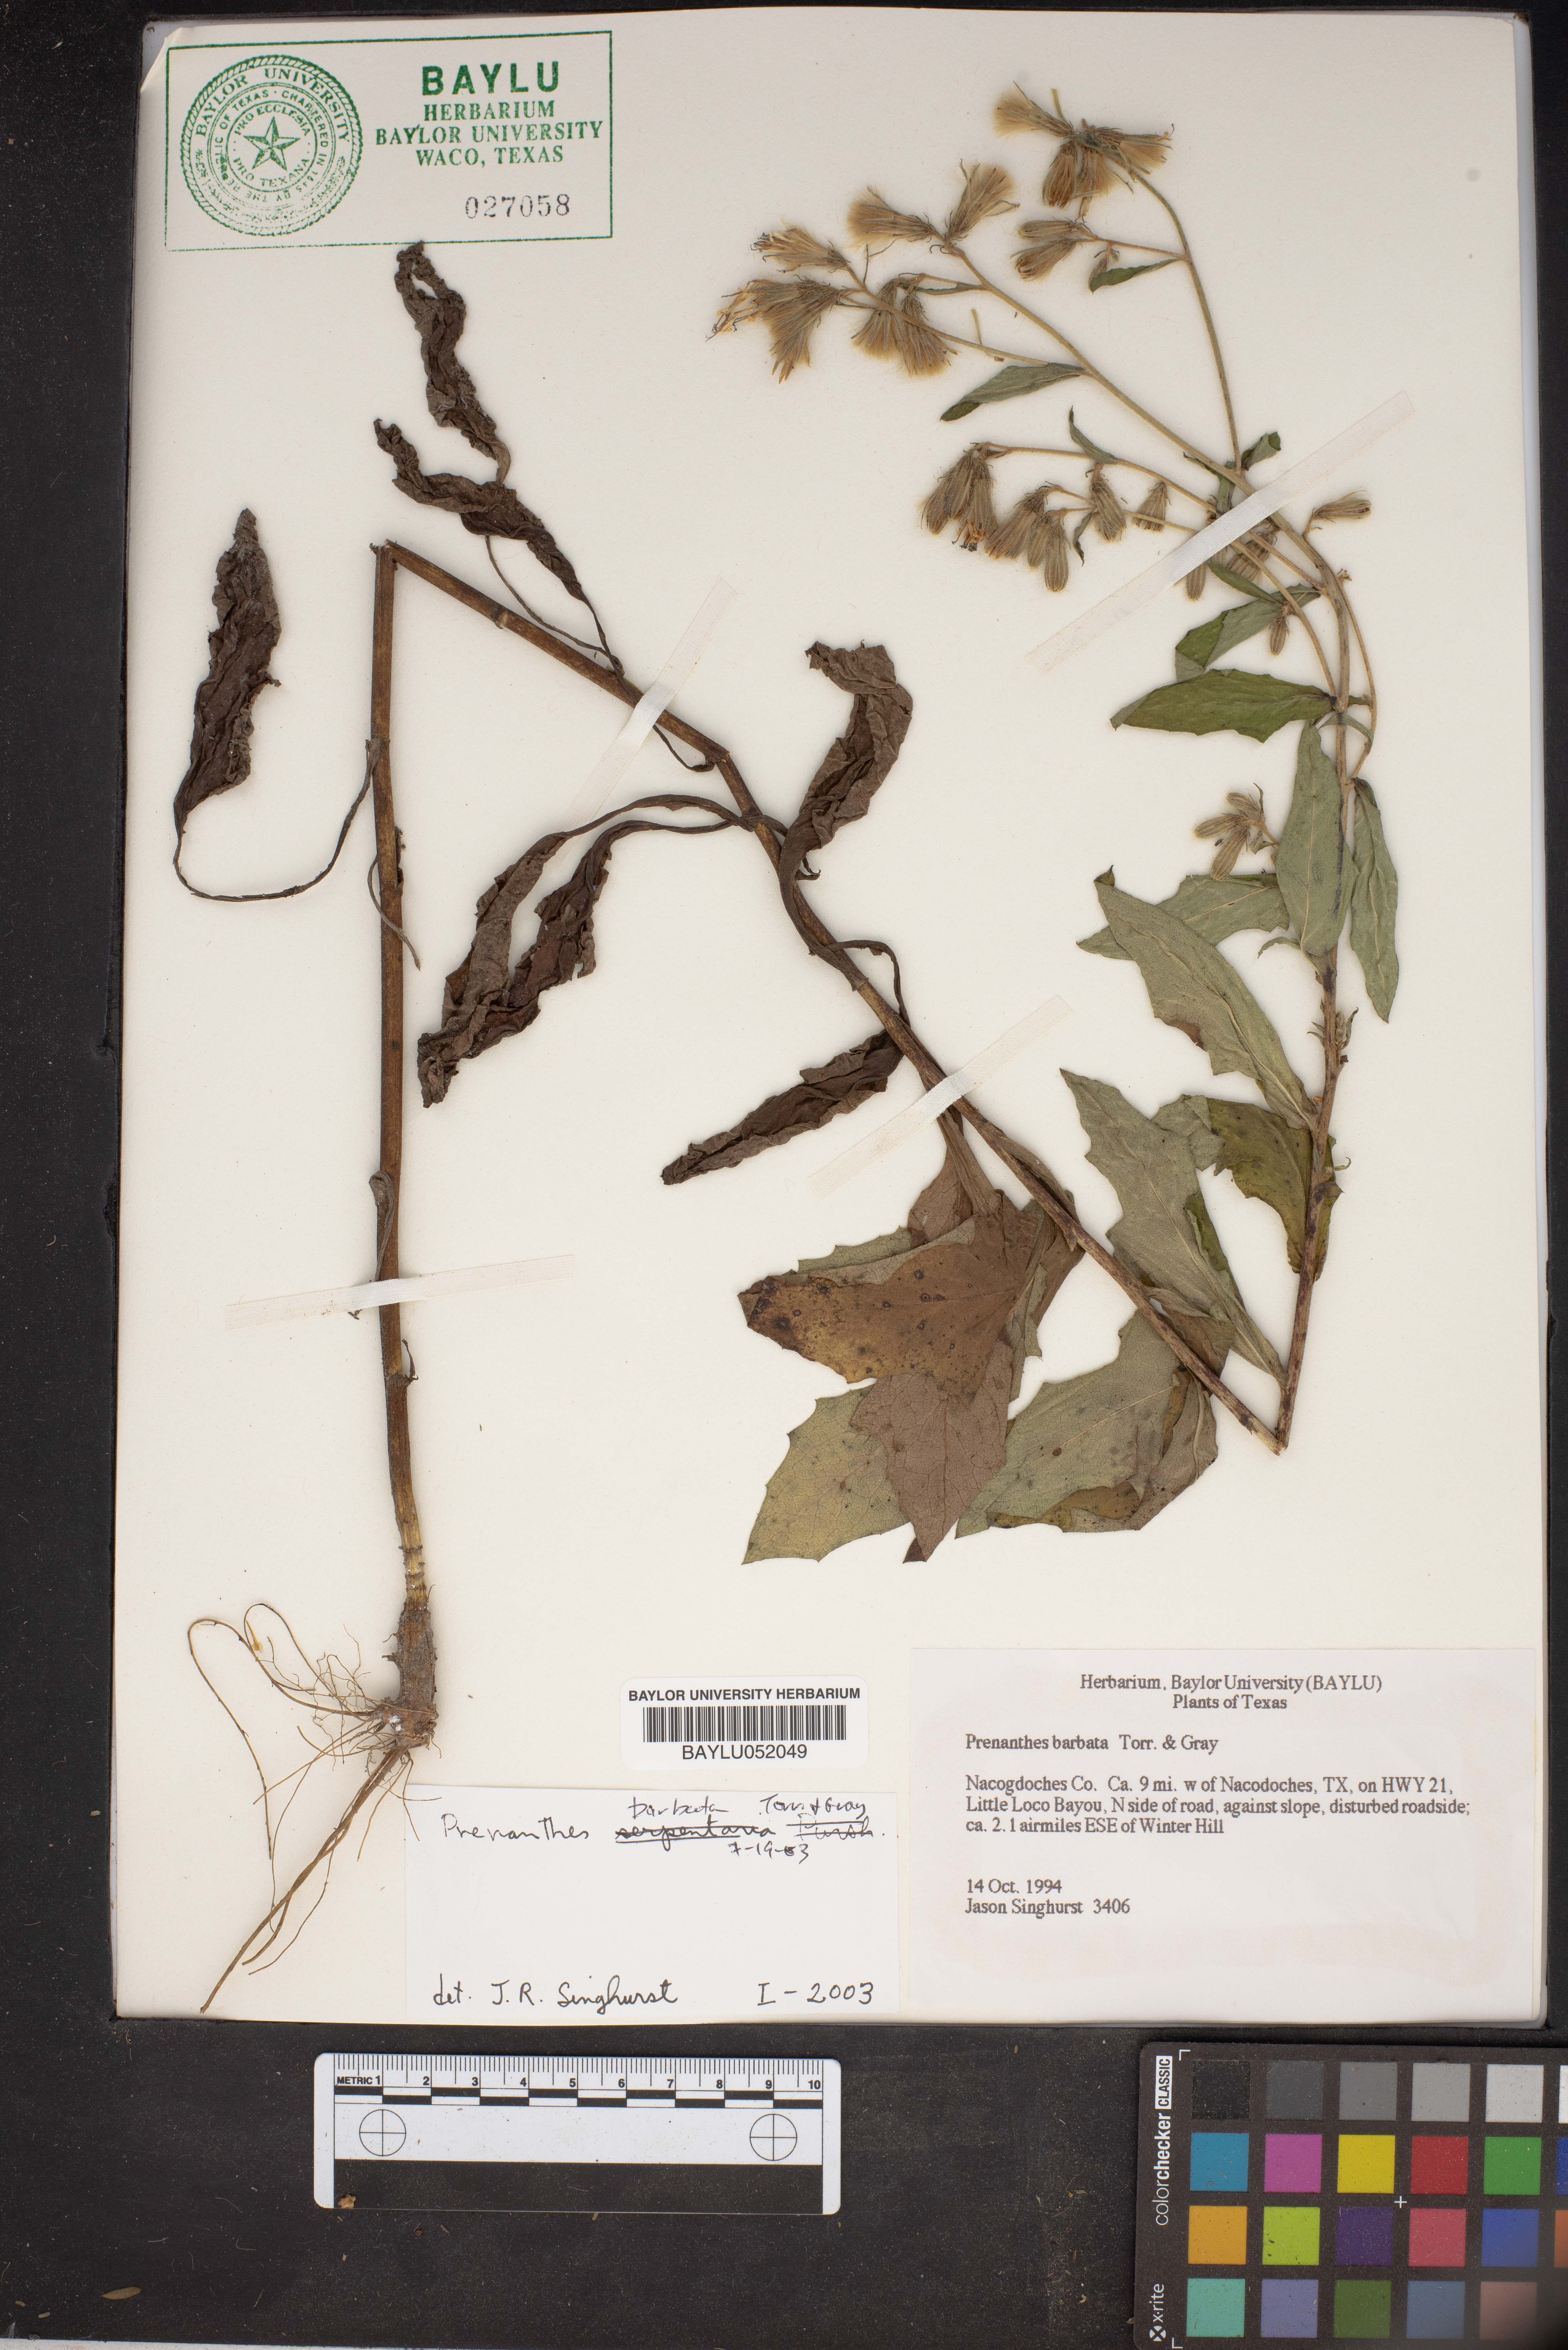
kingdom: Plantae
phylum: Tracheophyta
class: Magnoliopsida
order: Asterales
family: Asteraceae
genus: Nabalus
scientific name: Nabalus barbata
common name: Barbed rattlesnakeroot
